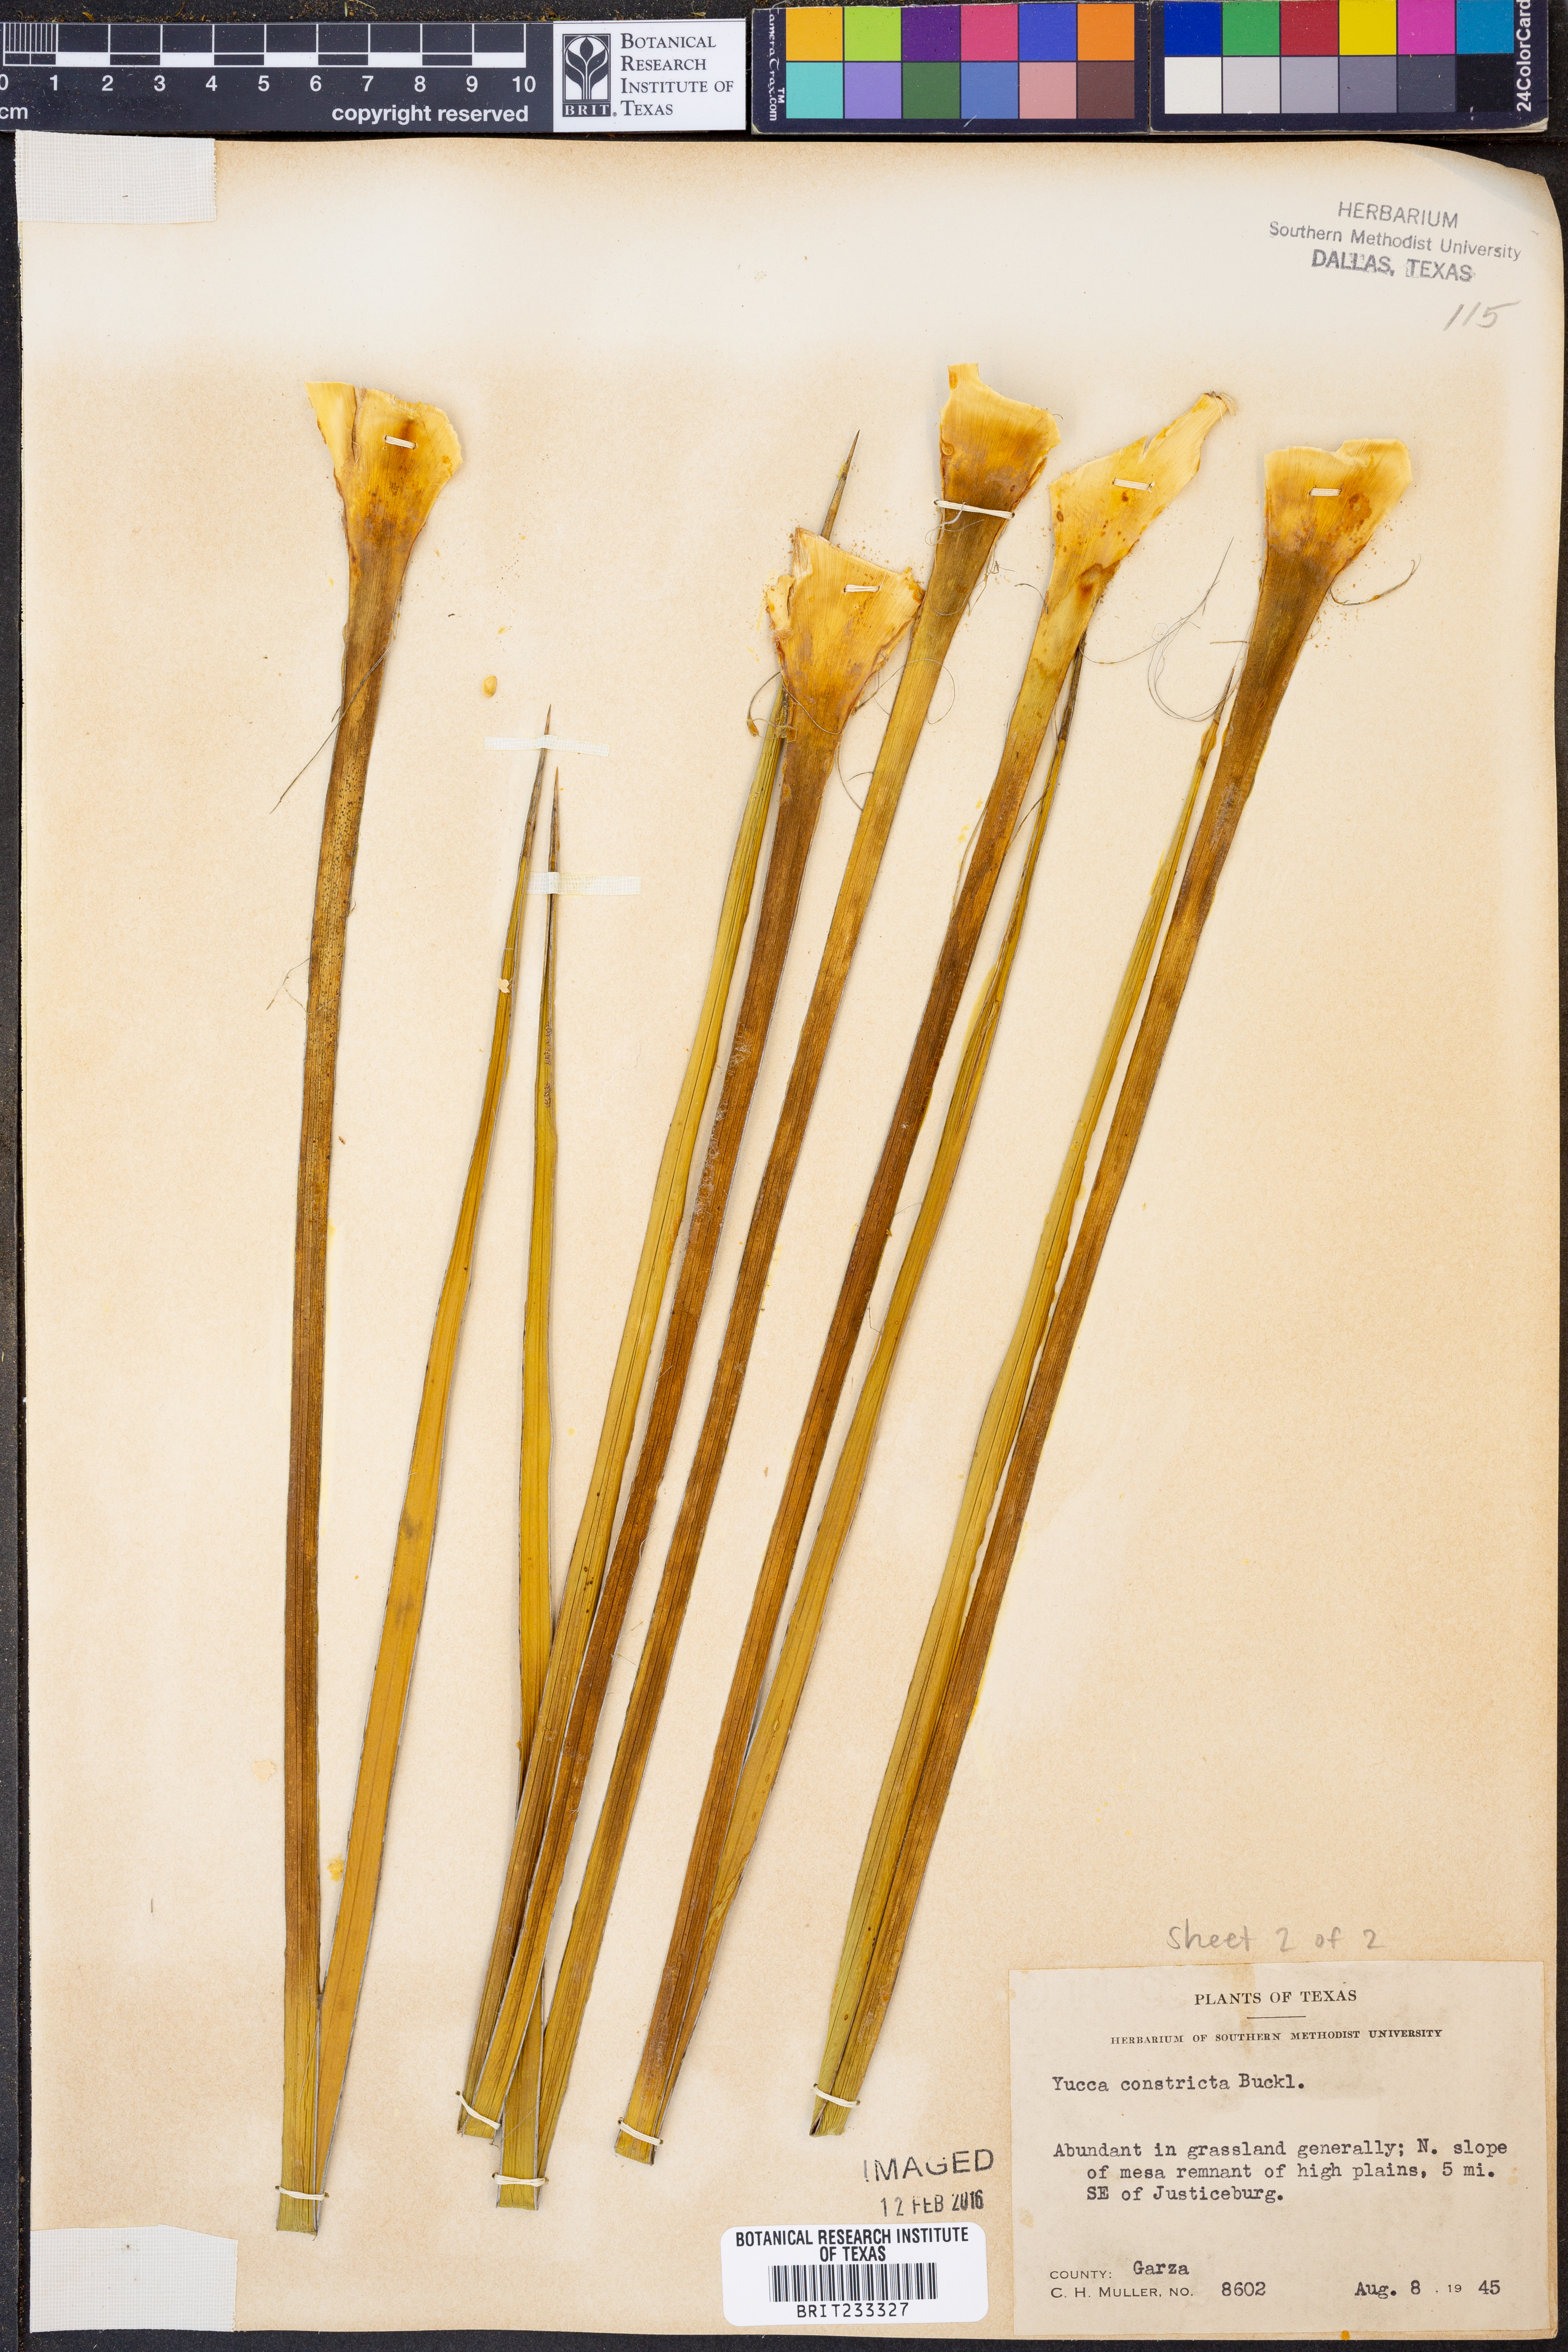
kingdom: Plantae
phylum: Tracheophyta
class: Liliopsida
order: Asparagales
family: Asparagaceae
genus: Yucca
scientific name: Yucca constricta
